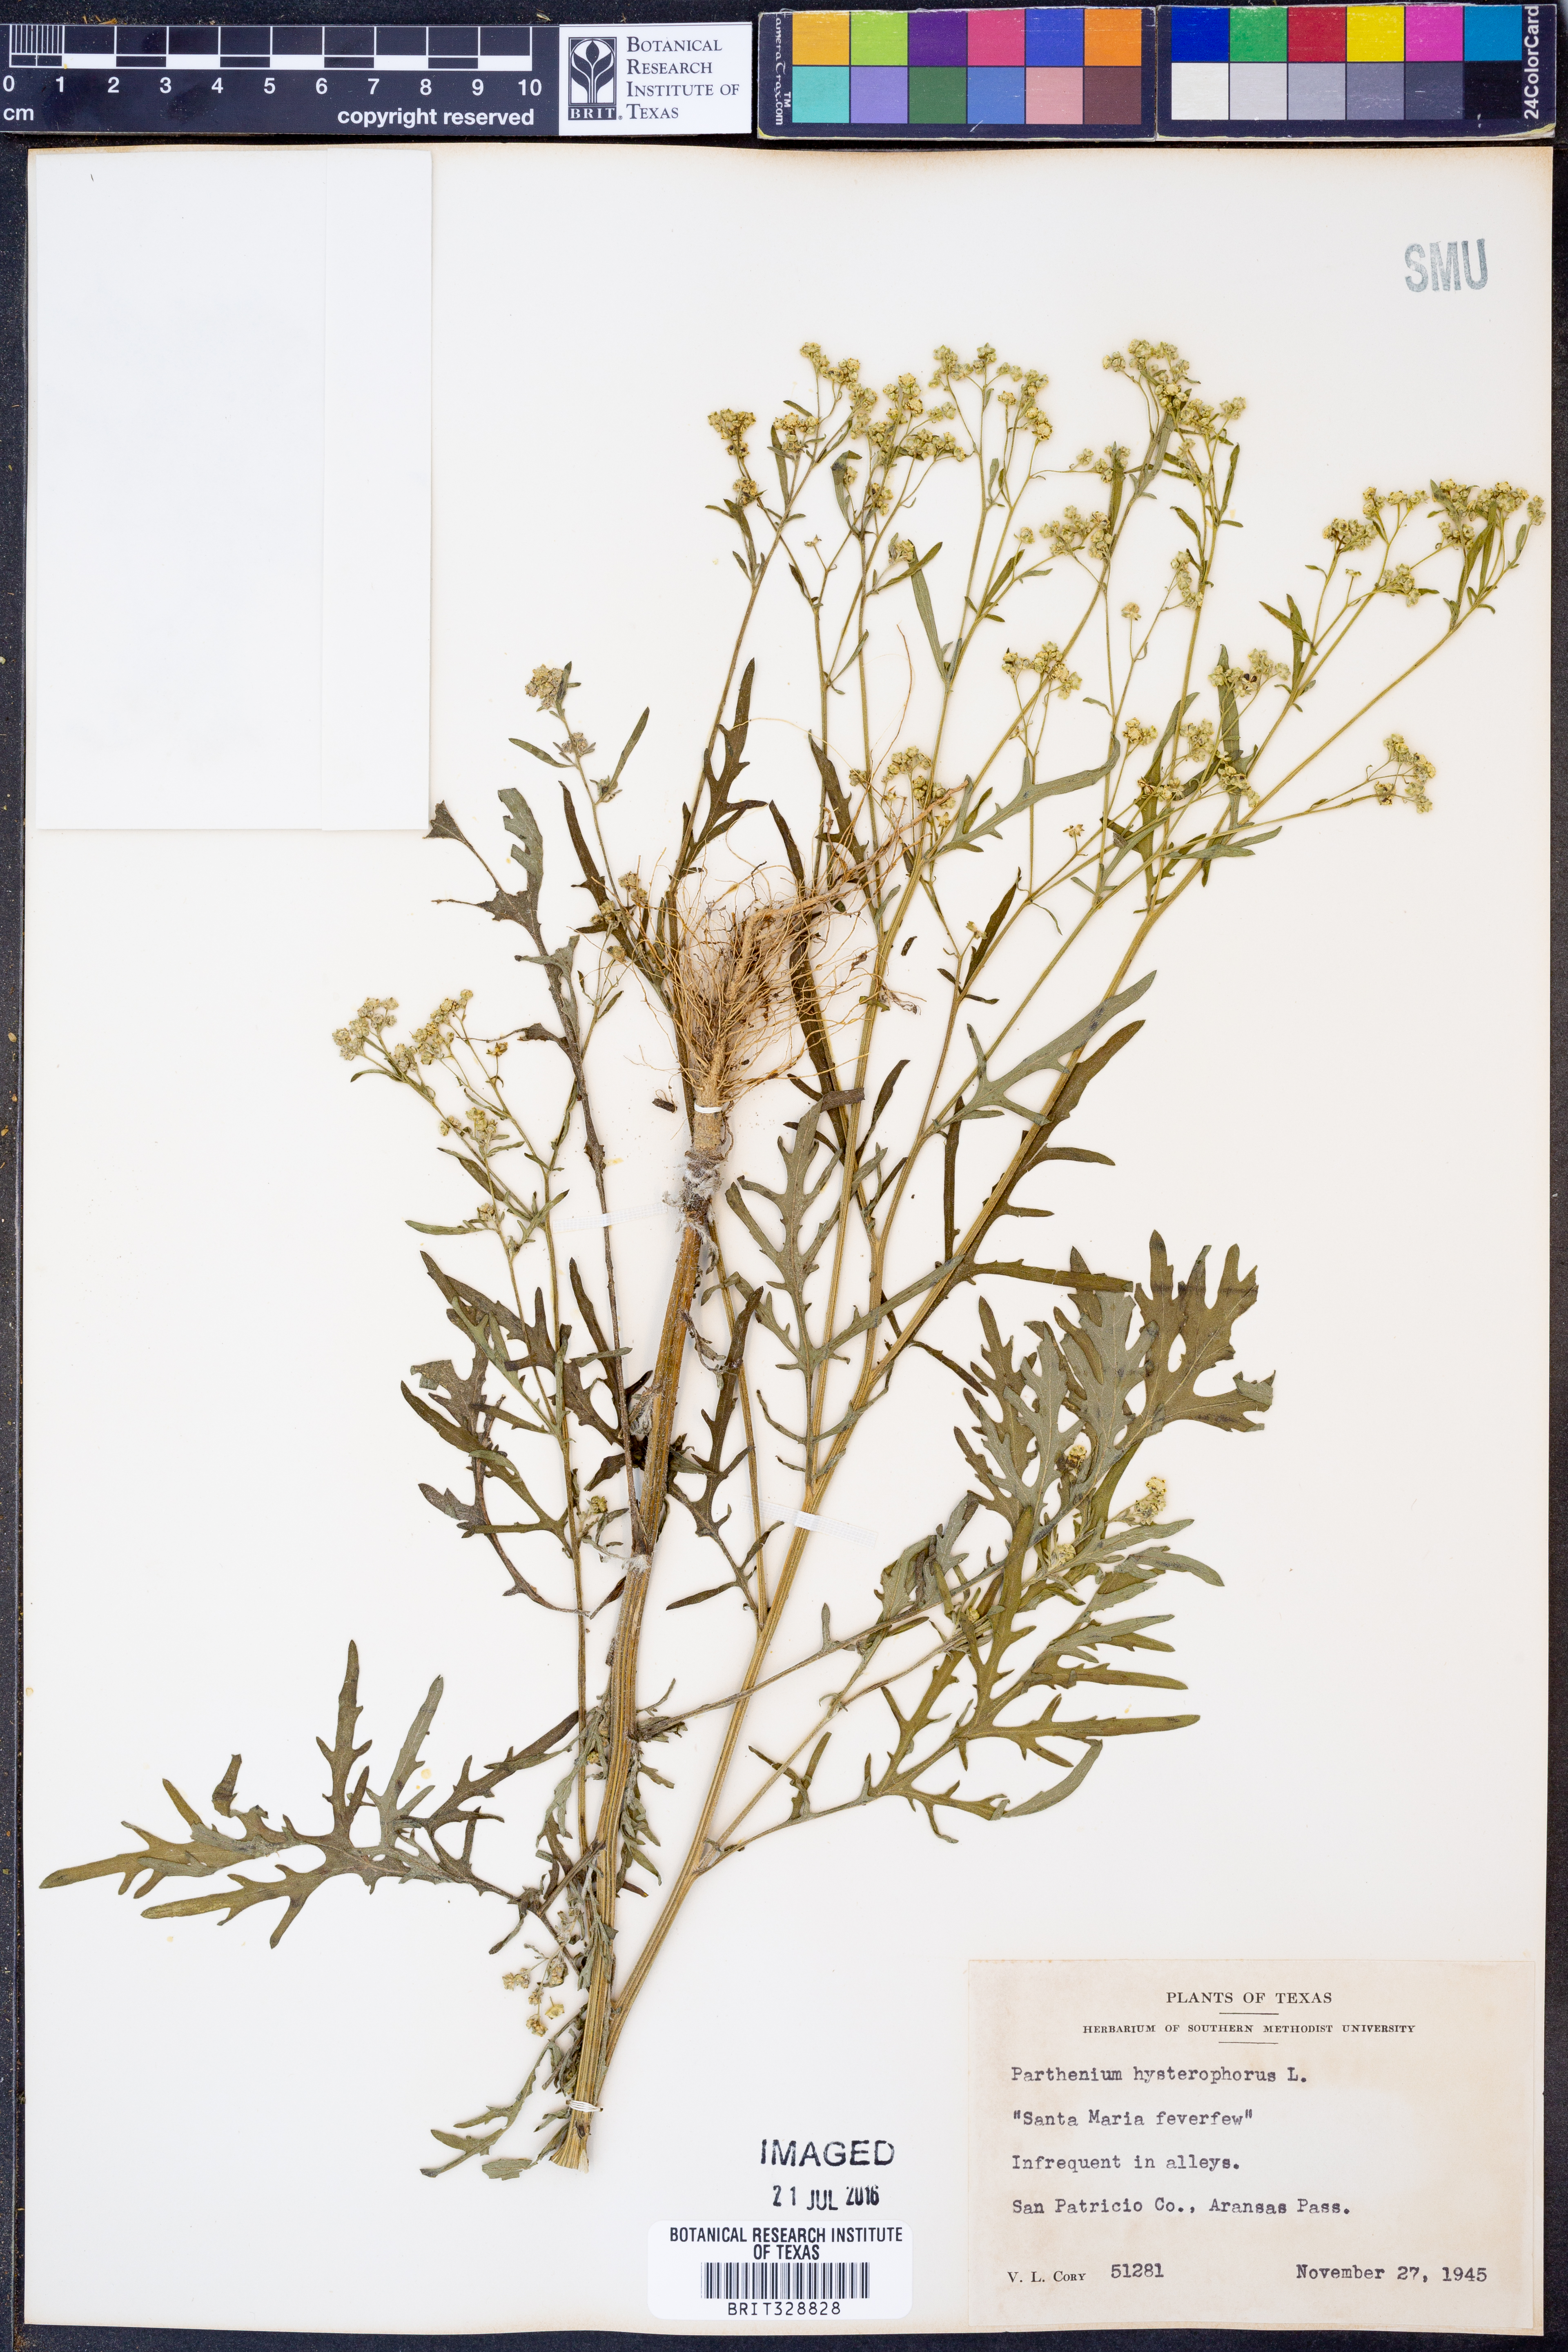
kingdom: Plantae
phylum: Tracheophyta
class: Magnoliopsida
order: Asterales
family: Asteraceae
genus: Parthenium
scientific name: Parthenium hysterophorus
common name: Santa maria feverfew
